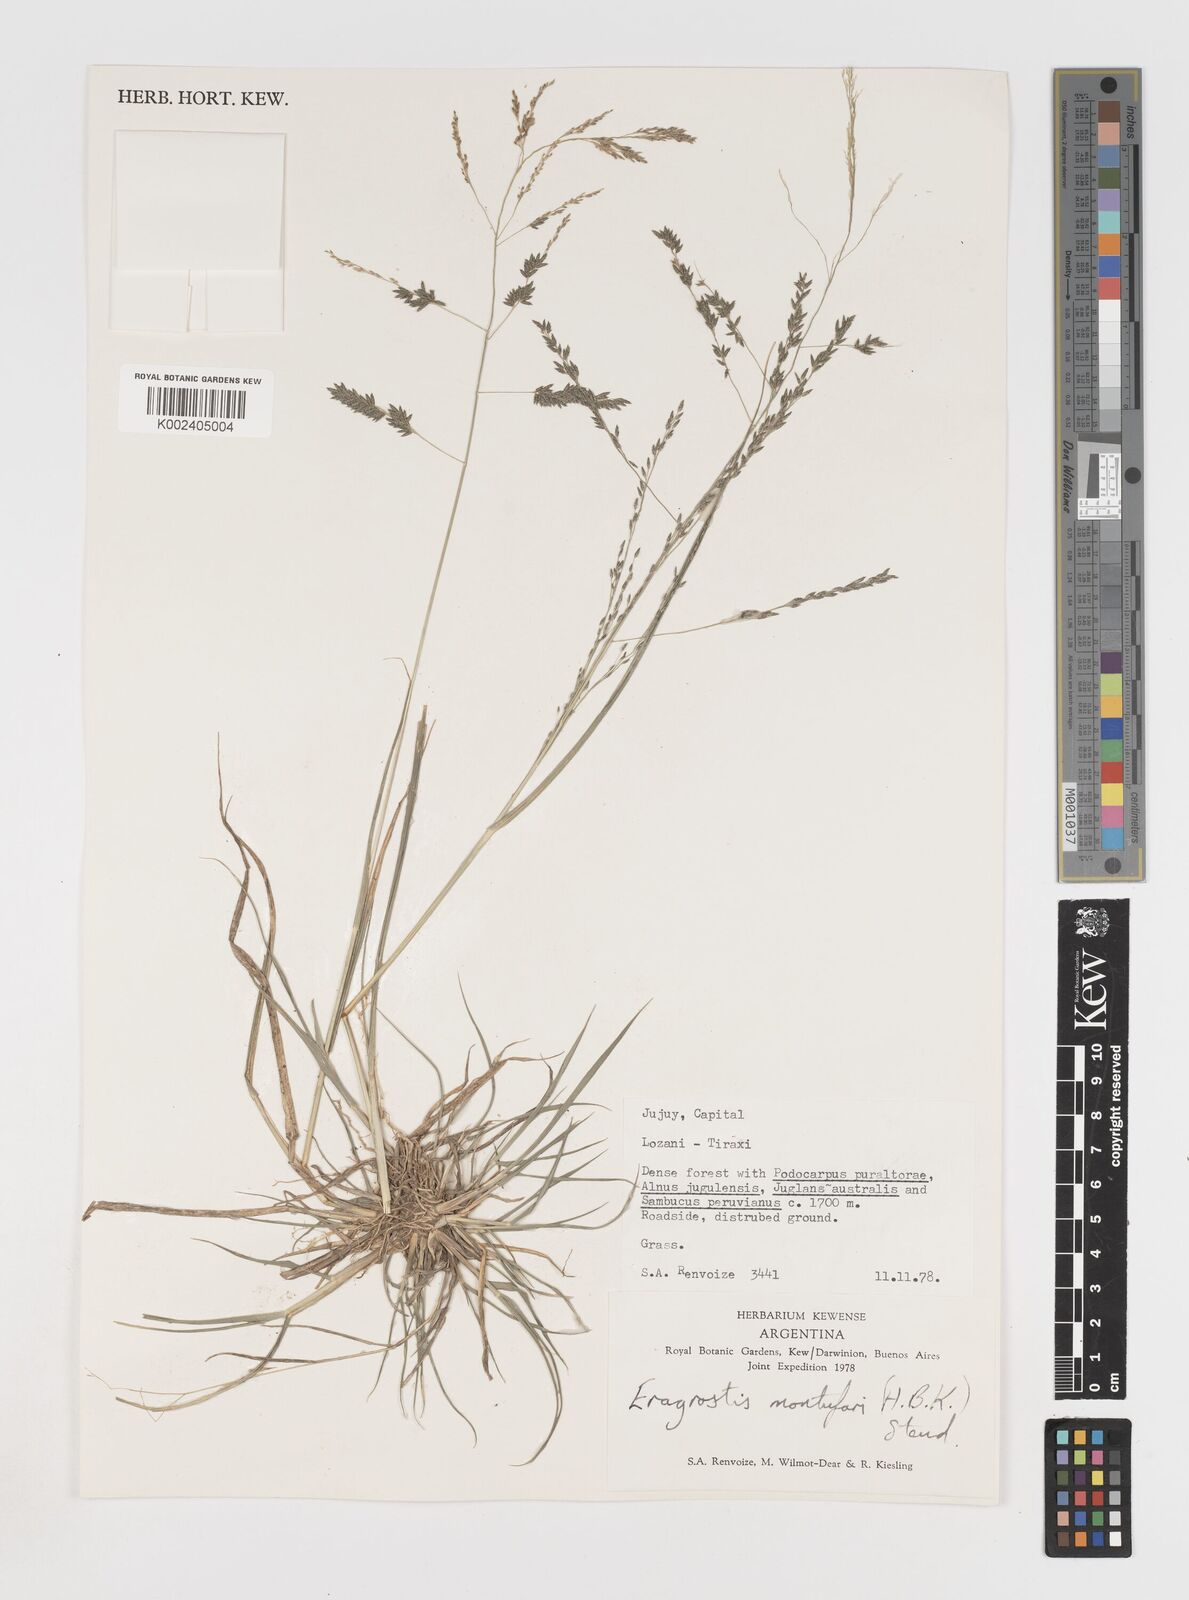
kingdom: Plantae
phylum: Tracheophyta
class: Liliopsida
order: Poales
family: Poaceae
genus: Eragrostis
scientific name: Eragrostis pastoensis
